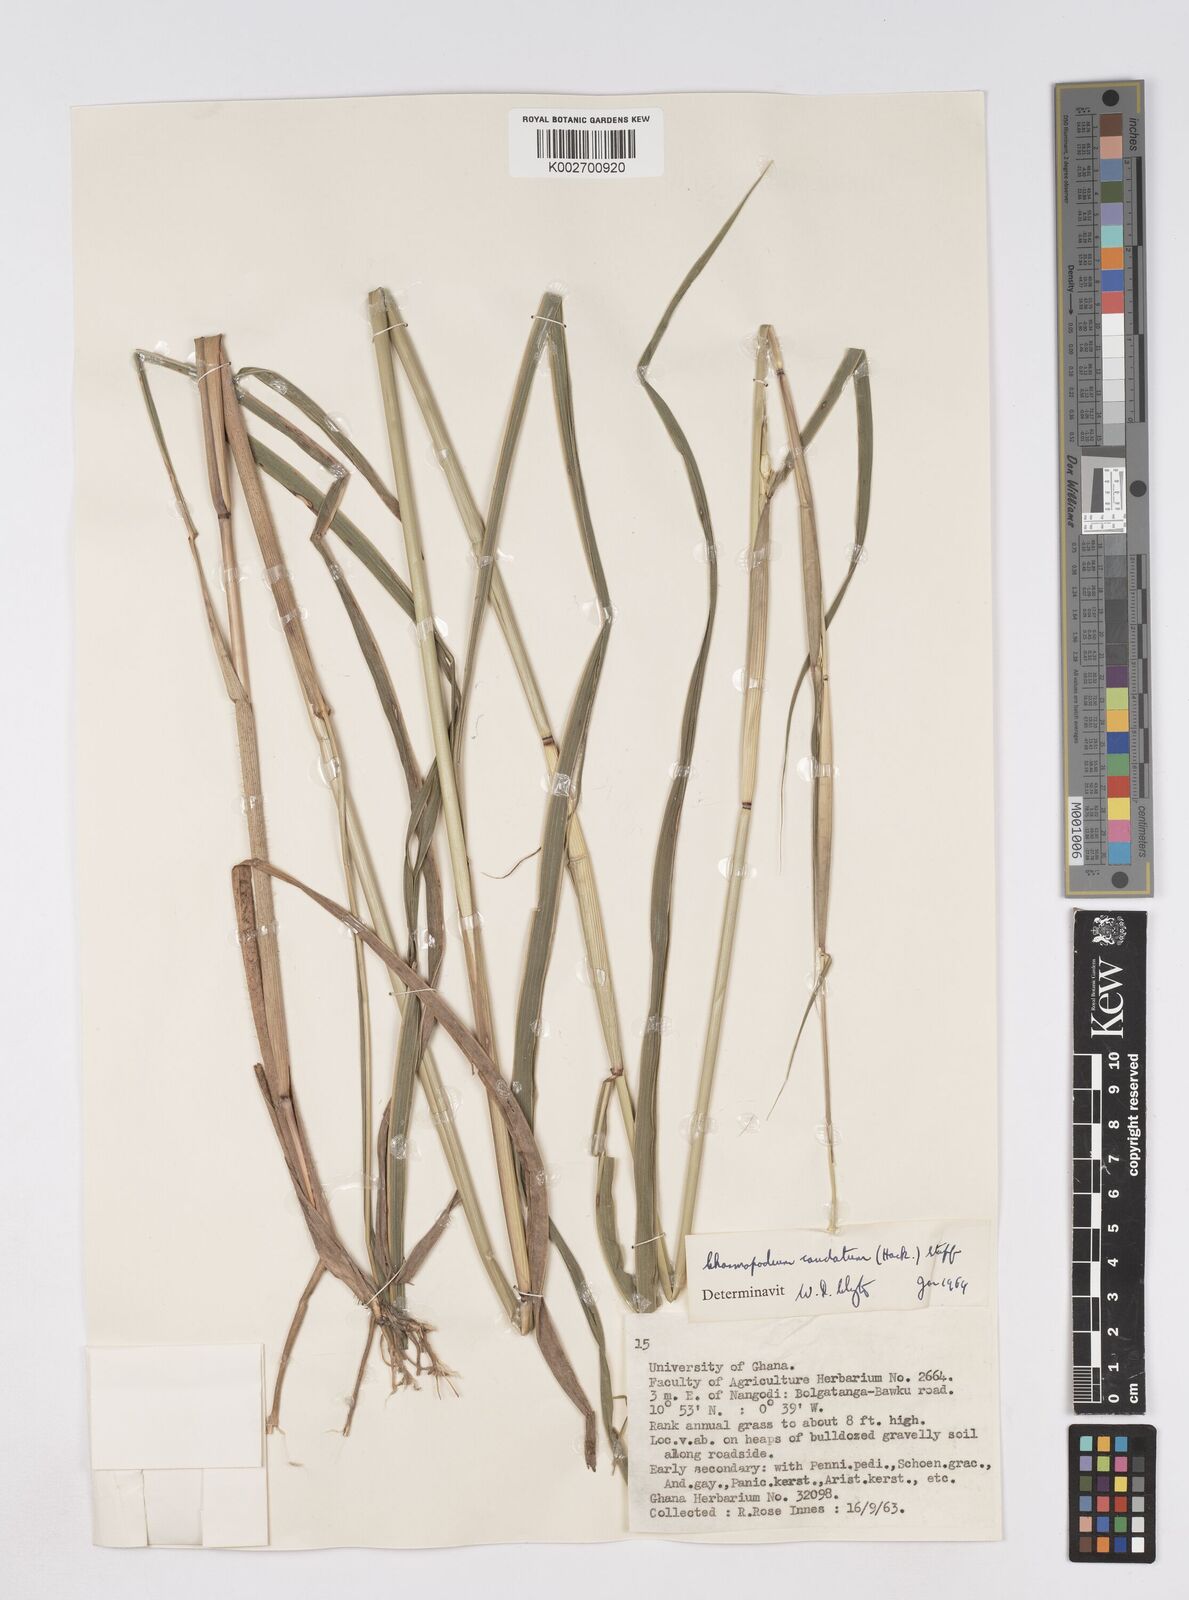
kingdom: Plantae
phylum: Tracheophyta
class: Liliopsida
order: Poales
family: Poaceae
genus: Chasmopodium
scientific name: Chasmopodium caudatum
